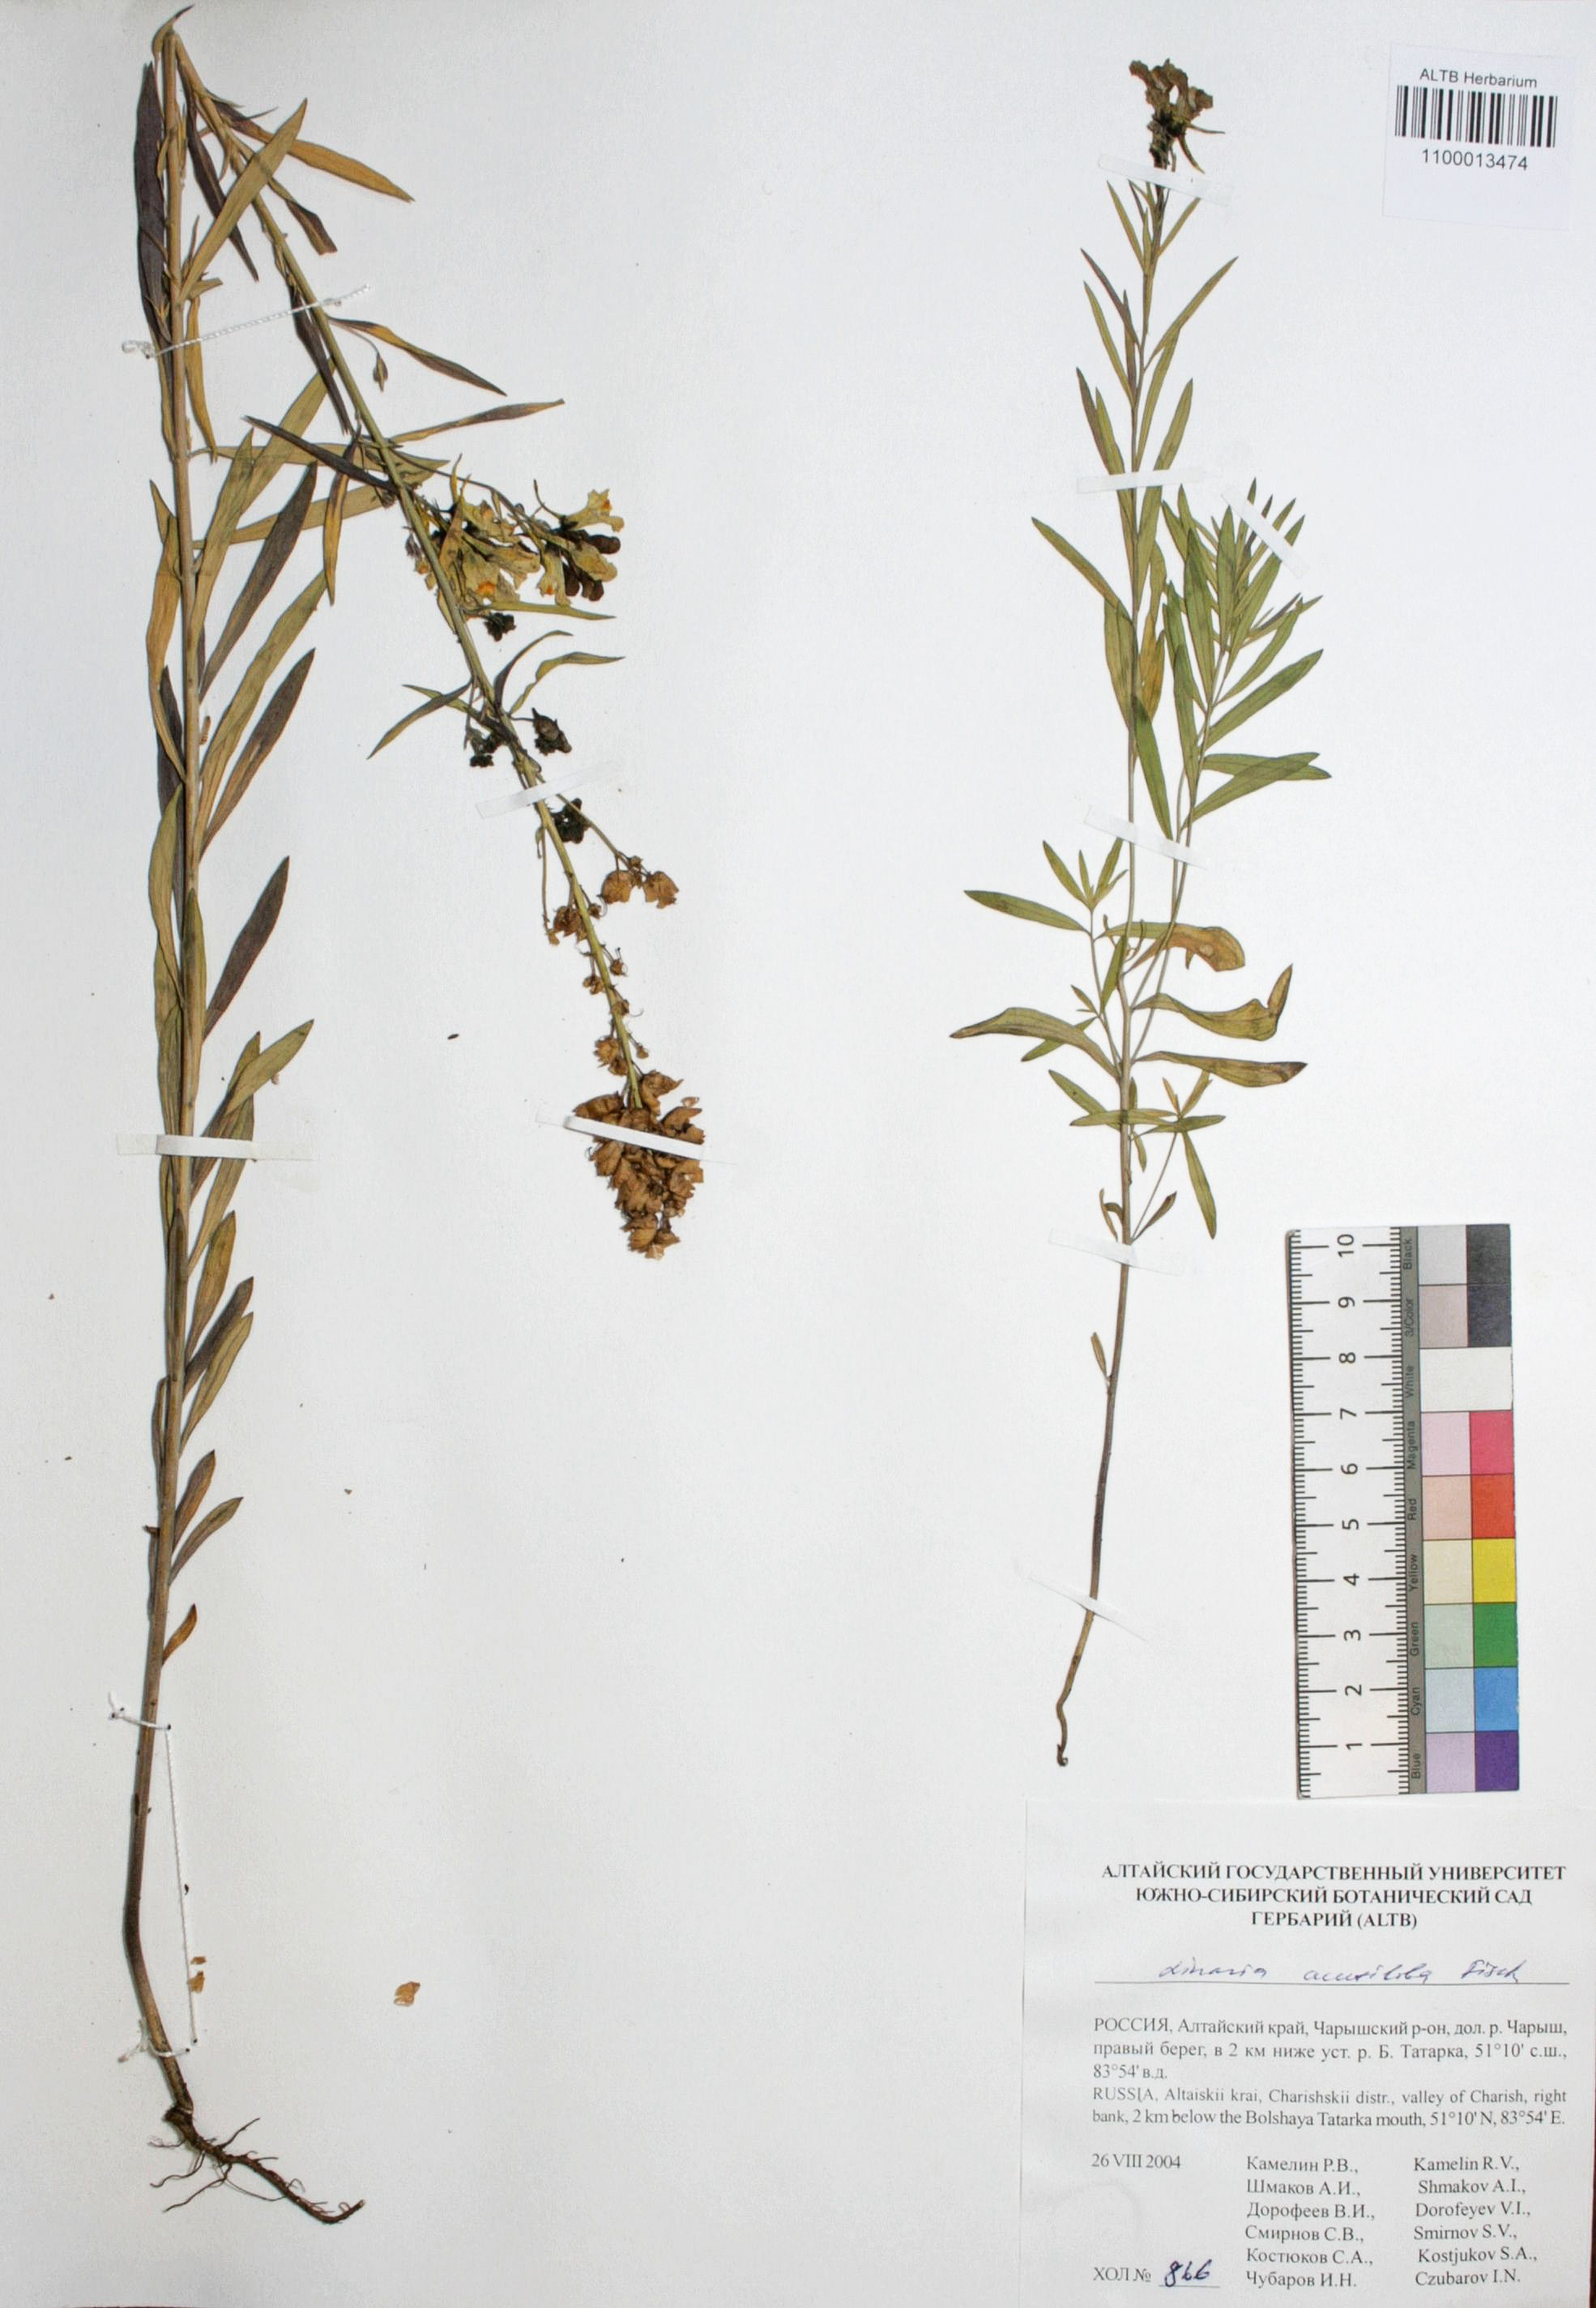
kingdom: Plantae
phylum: Tracheophyta
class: Magnoliopsida
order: Lamiales
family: Plantaginaceae
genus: Linaria
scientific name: Linaria acutiloba
